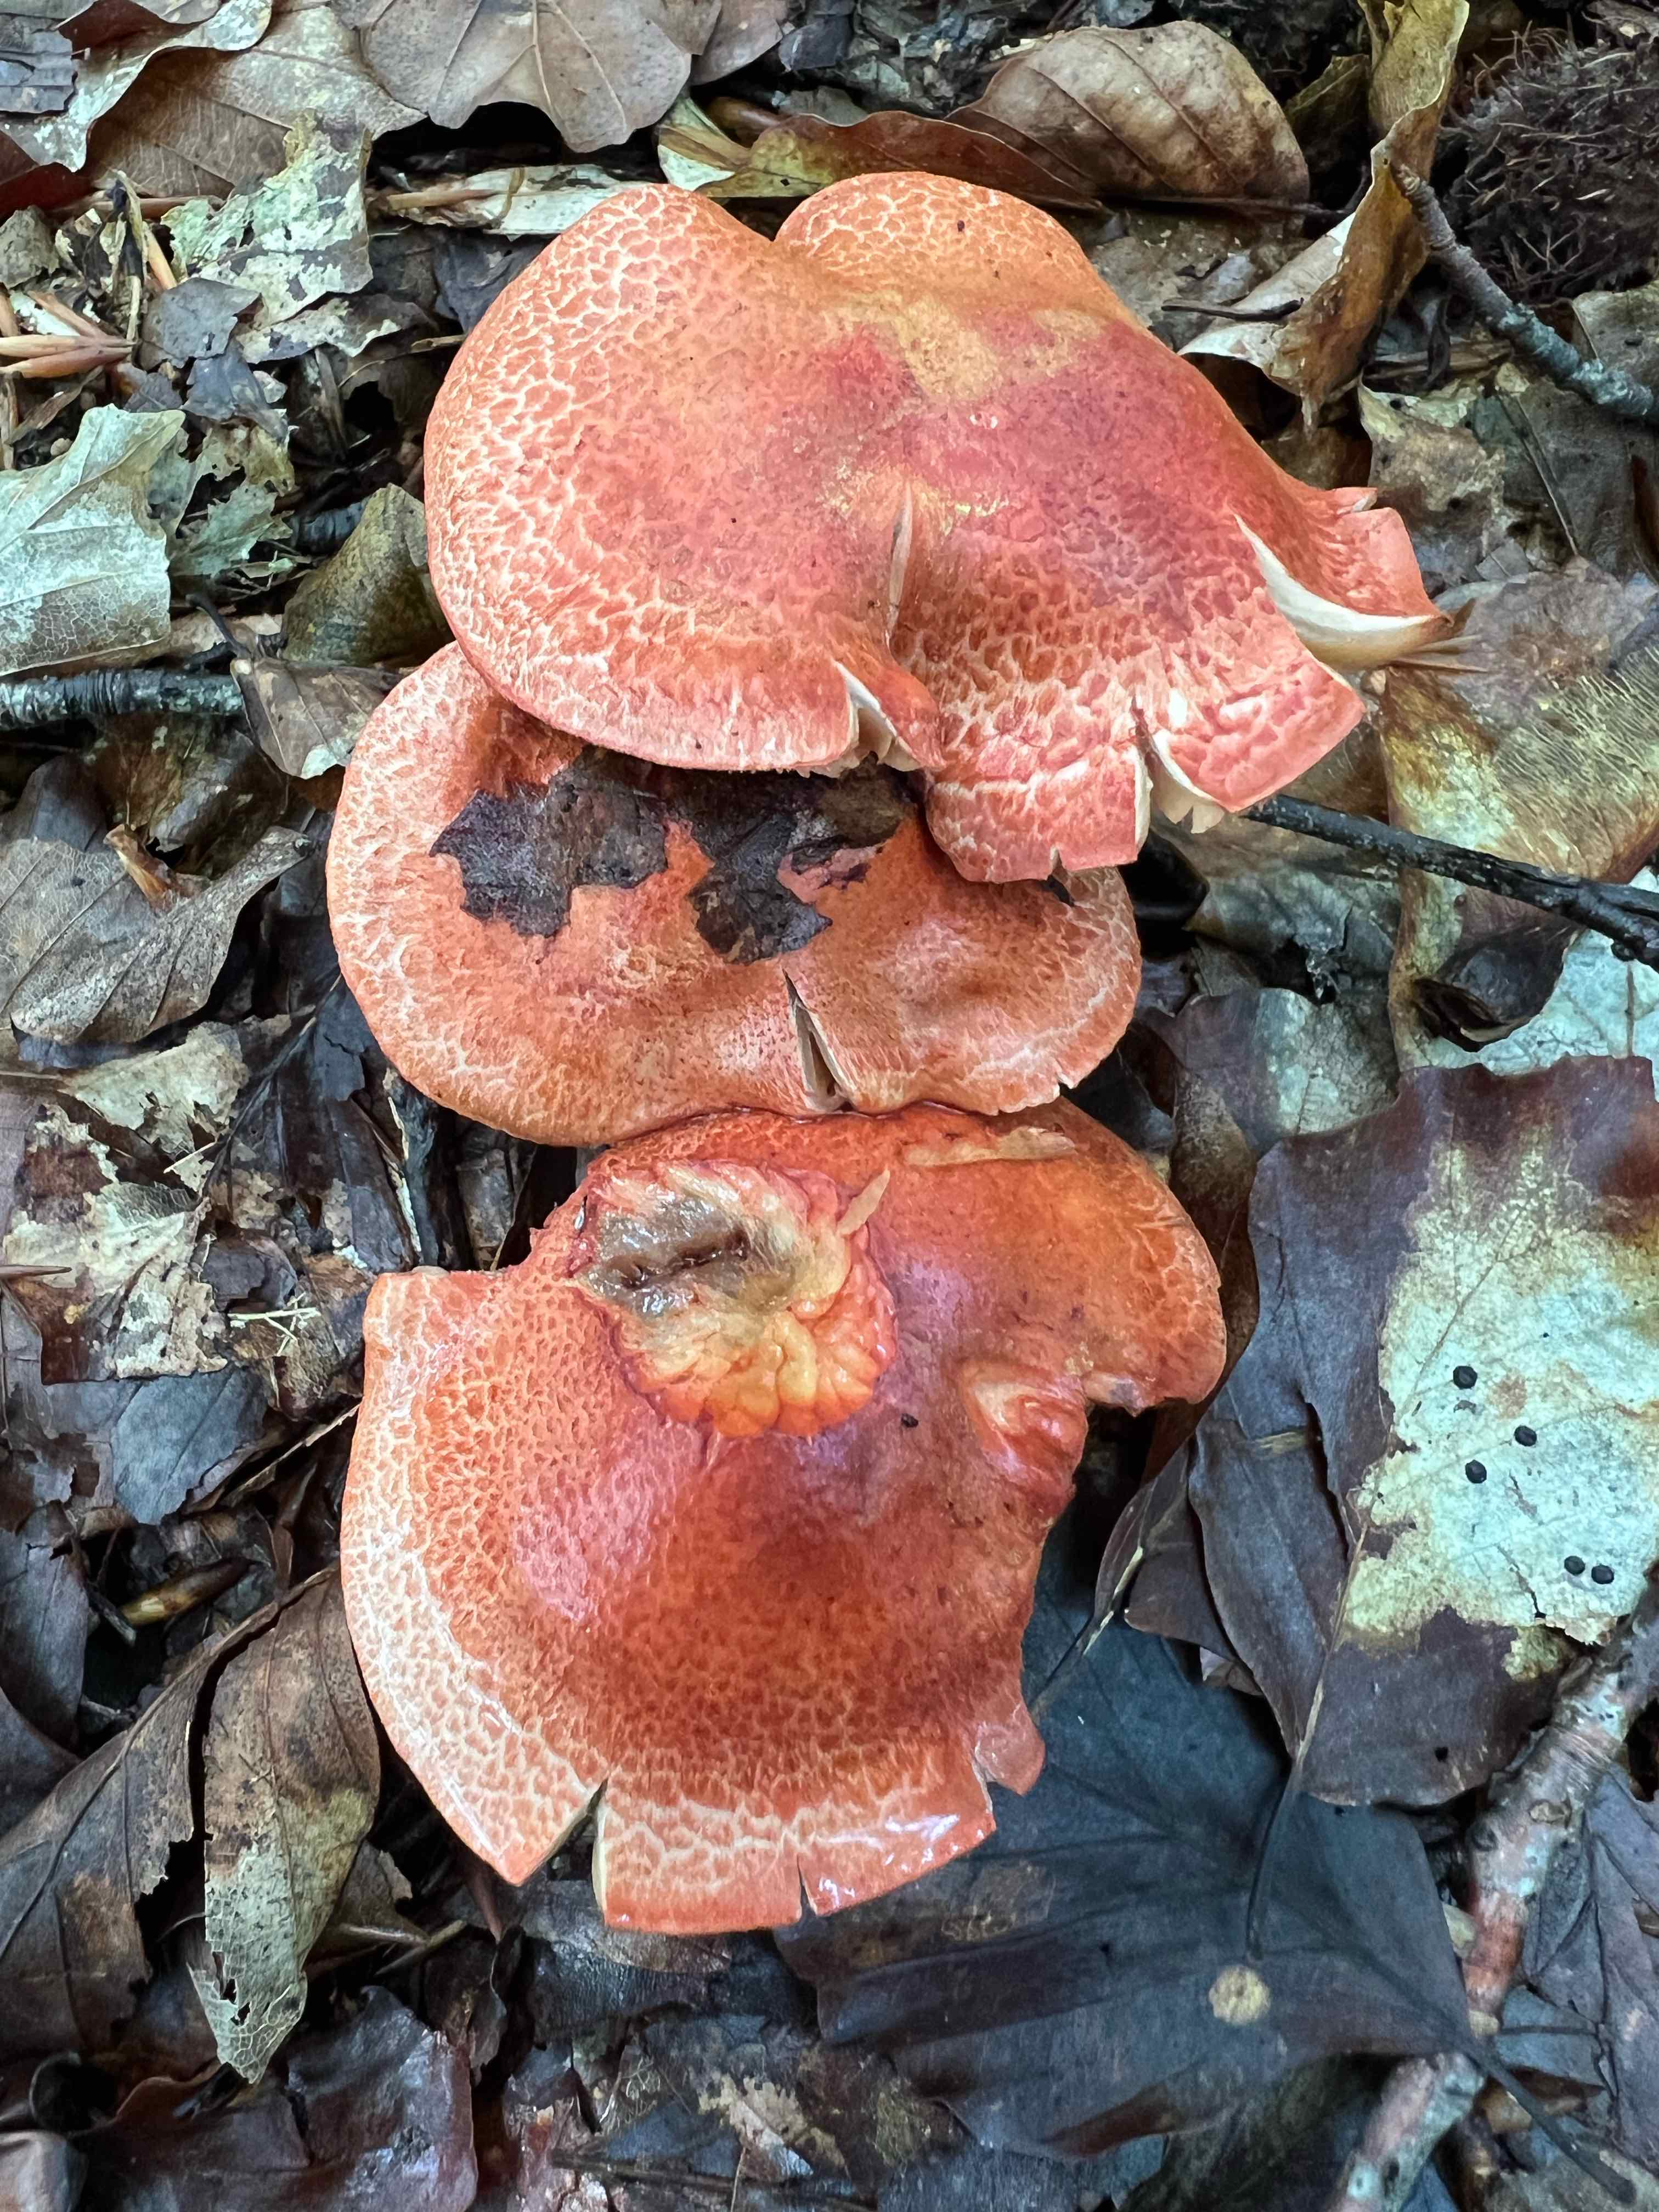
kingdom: Fungi
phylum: Basidiomycota
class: Agaricomycetes
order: Agaricales
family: Cortinariaceae
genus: Cortinarius
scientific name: Cortinarius bolaris
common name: cinnoberskællet slørhat
